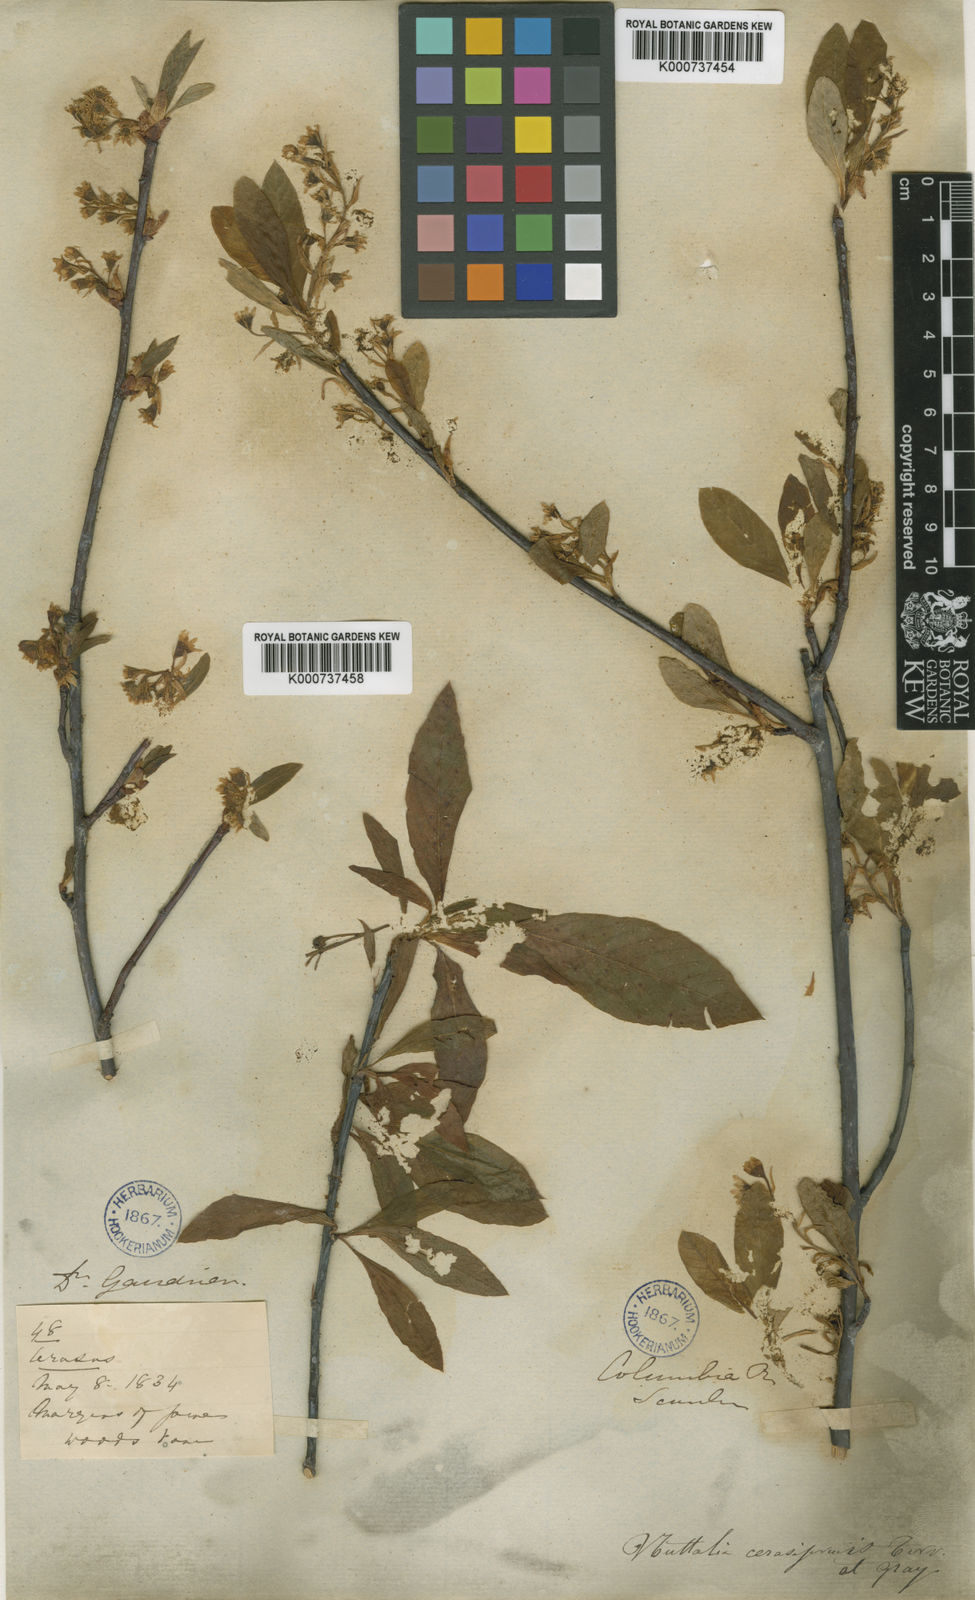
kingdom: Plantae
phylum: Tracheophyta
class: Magnoliopsida
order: Rosales
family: Rosaceae
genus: Spiraea
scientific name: Spiraea
